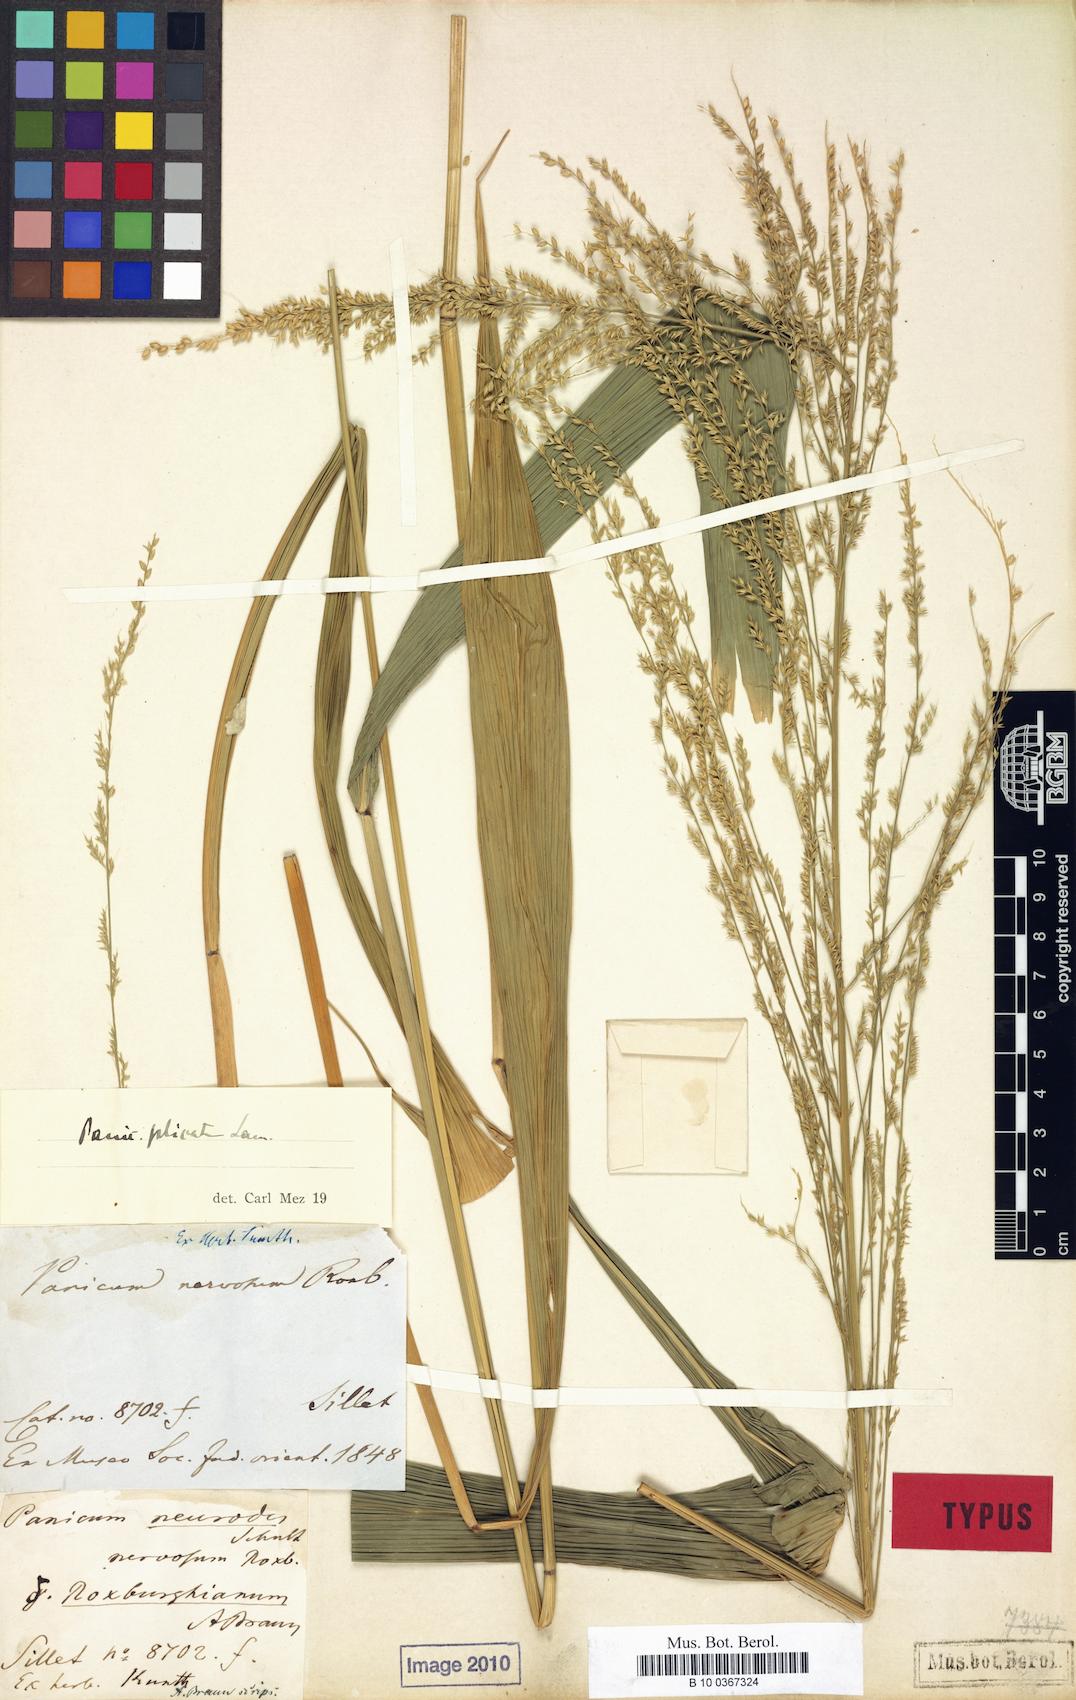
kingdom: Plantae
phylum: Tracheophyta
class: Liliopsida
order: Poales
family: Poaceae
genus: Setaria
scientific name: Setaria palmifolia
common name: Broadleaved bristlegrass
